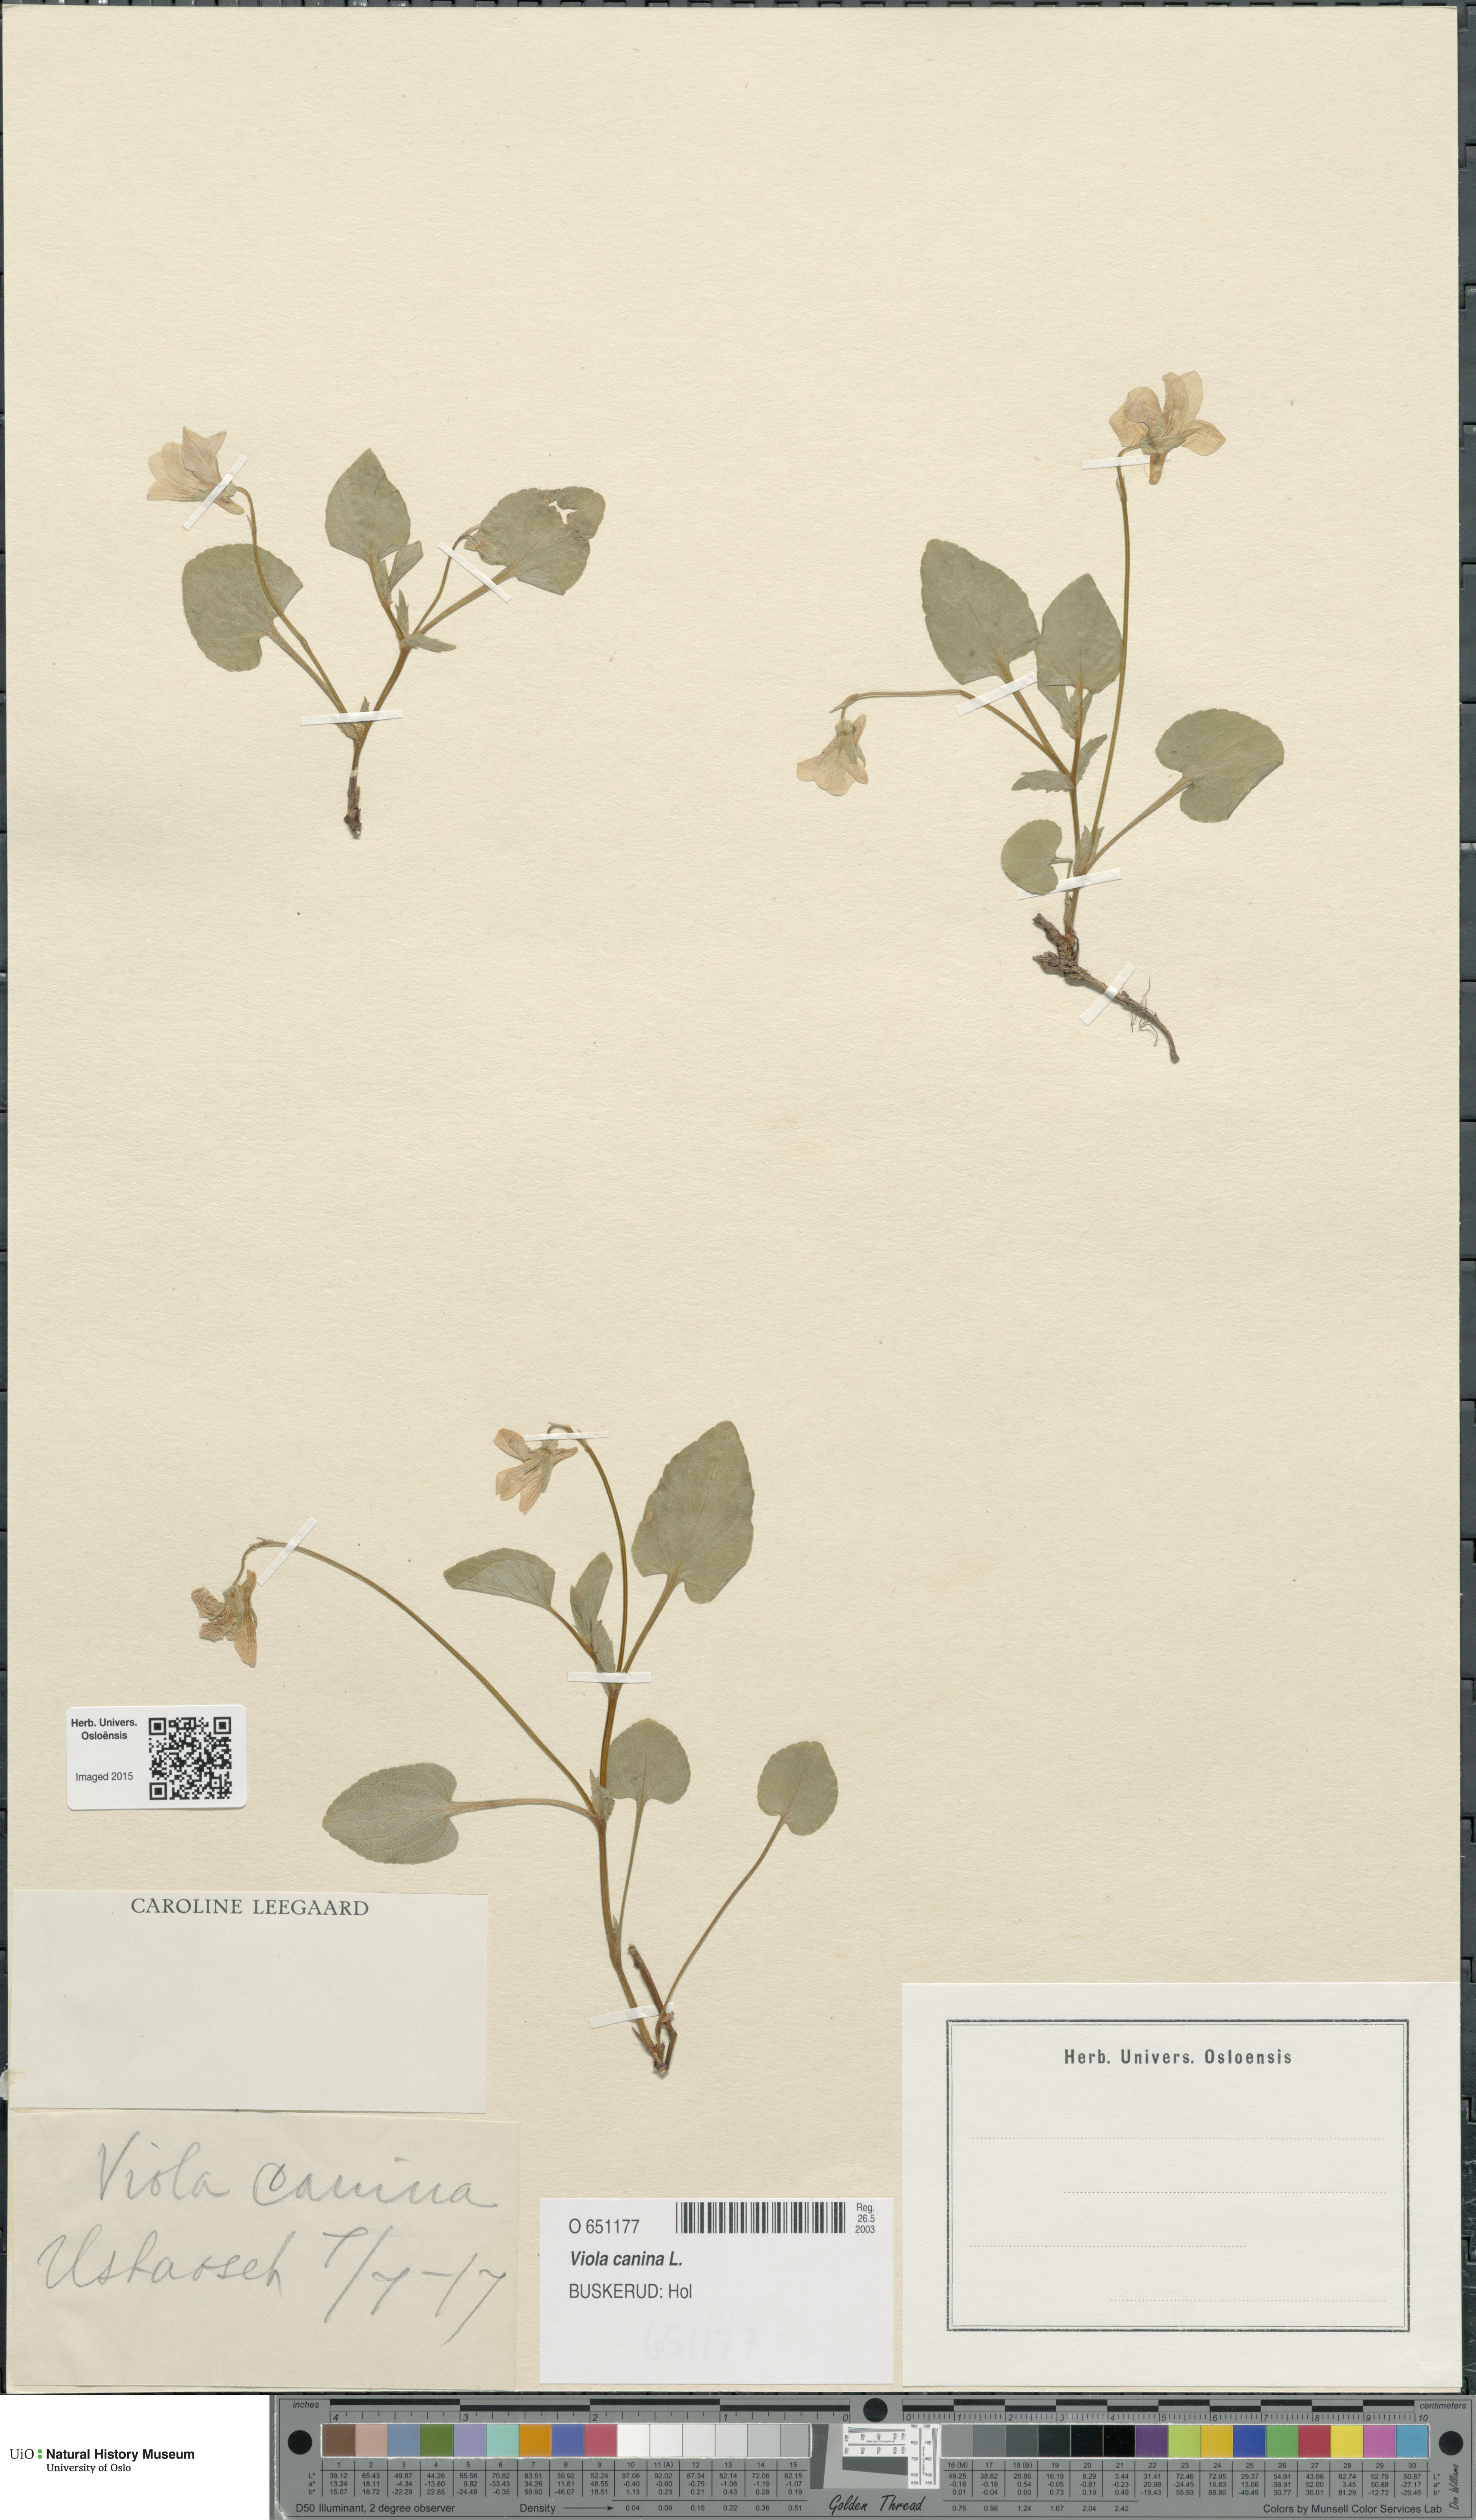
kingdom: Plantae
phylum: Tracheophyta
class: Magnoliopsida
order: Malpighiales
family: Violaceae
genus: Viola
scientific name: Viola canina
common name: Heath dog-violet
